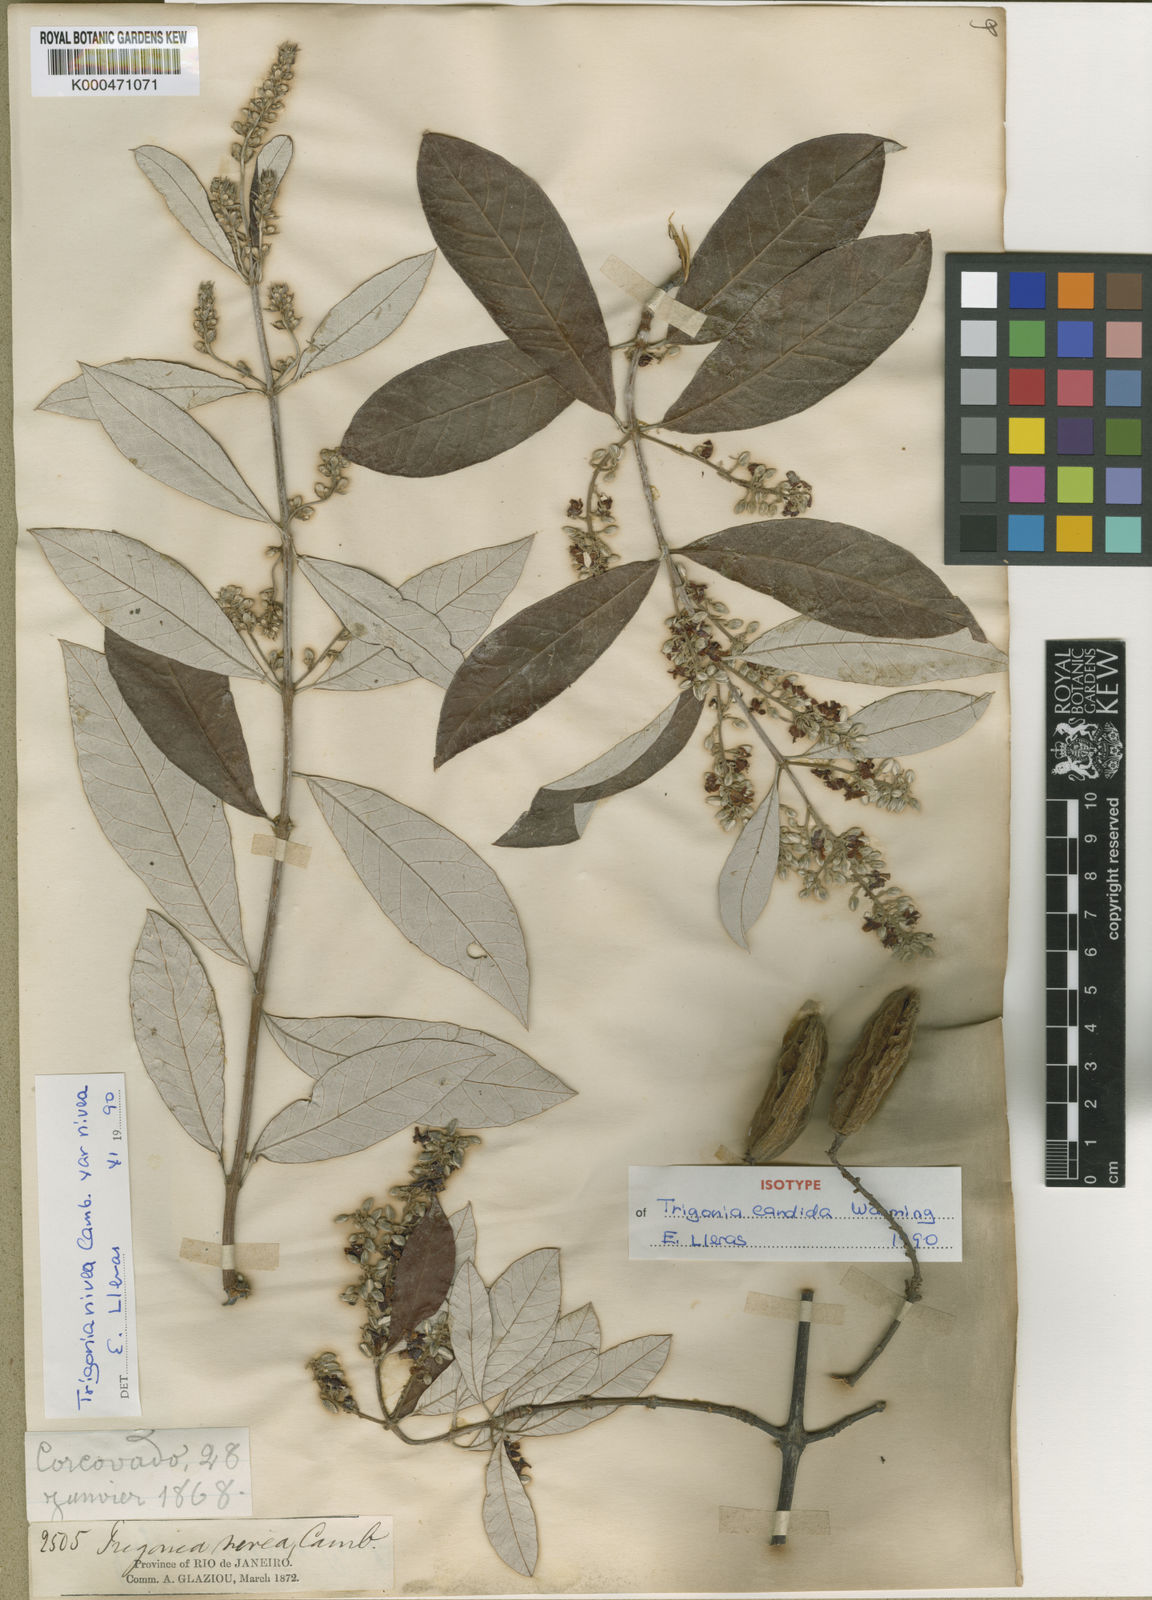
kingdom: Plantae
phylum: Tracheophyta
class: Magnoliopsida
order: Malpighiales
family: Trigoniaceae
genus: Trigonia
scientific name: Trigonia
